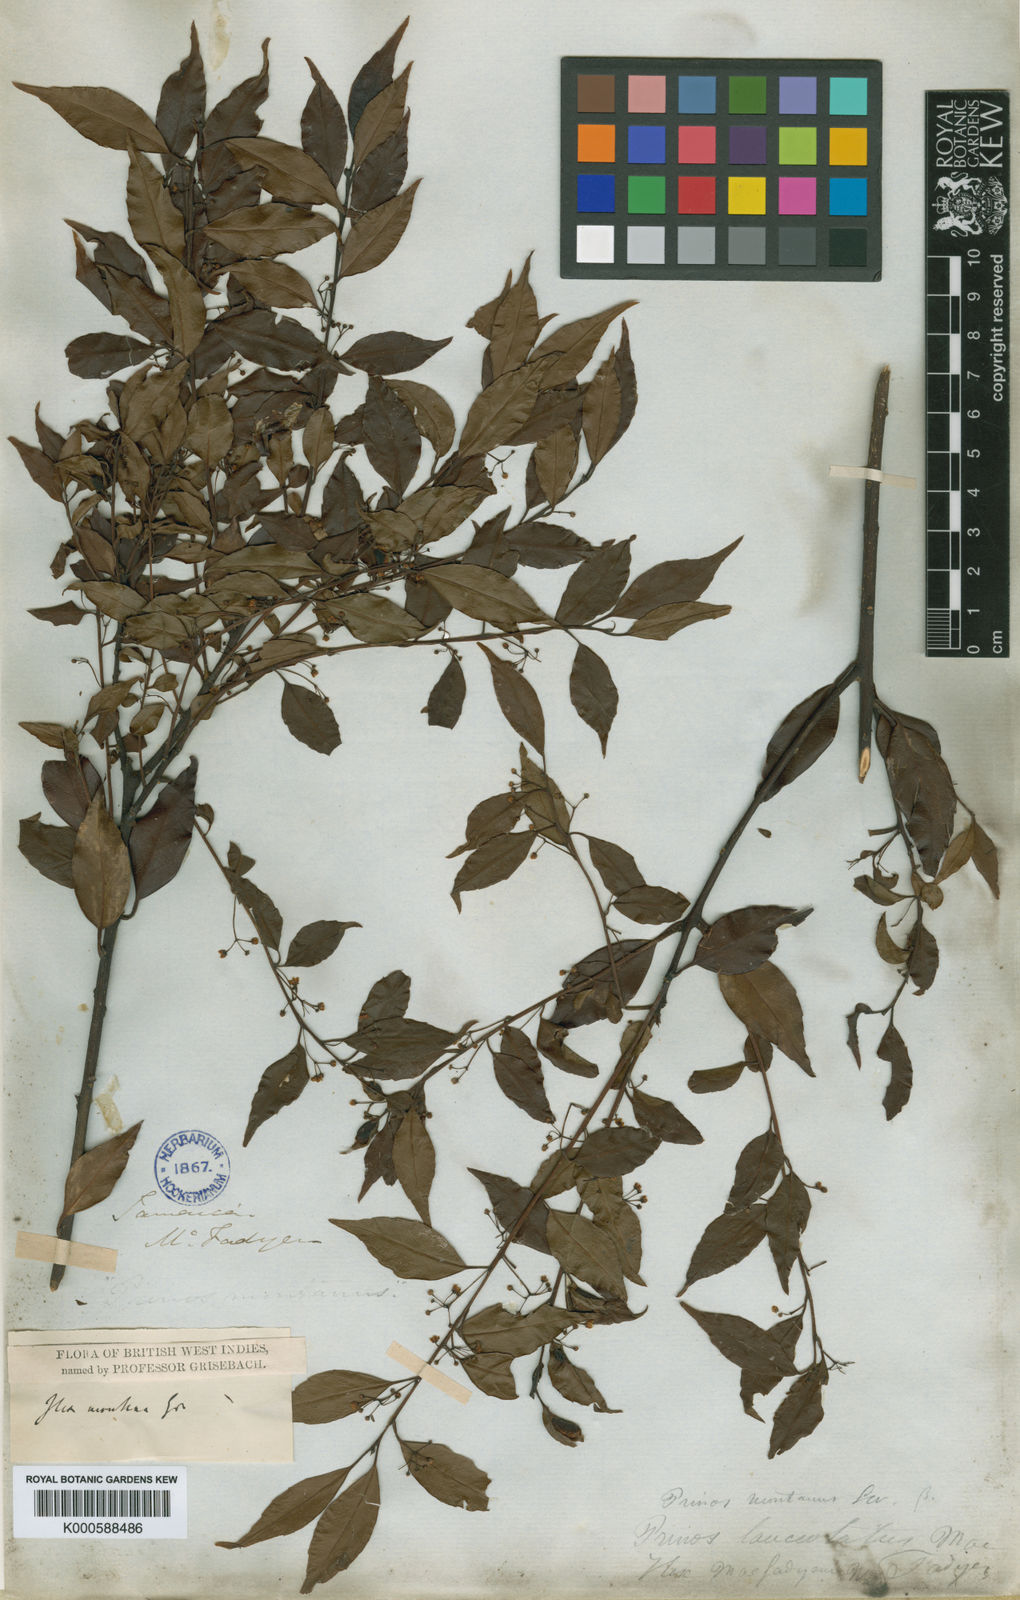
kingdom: Plantae
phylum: Tracheophyta
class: Magnoliopsida
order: Aquifoliales
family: Aquifoliaceae
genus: Ilex
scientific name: Ilex macfadyenii
